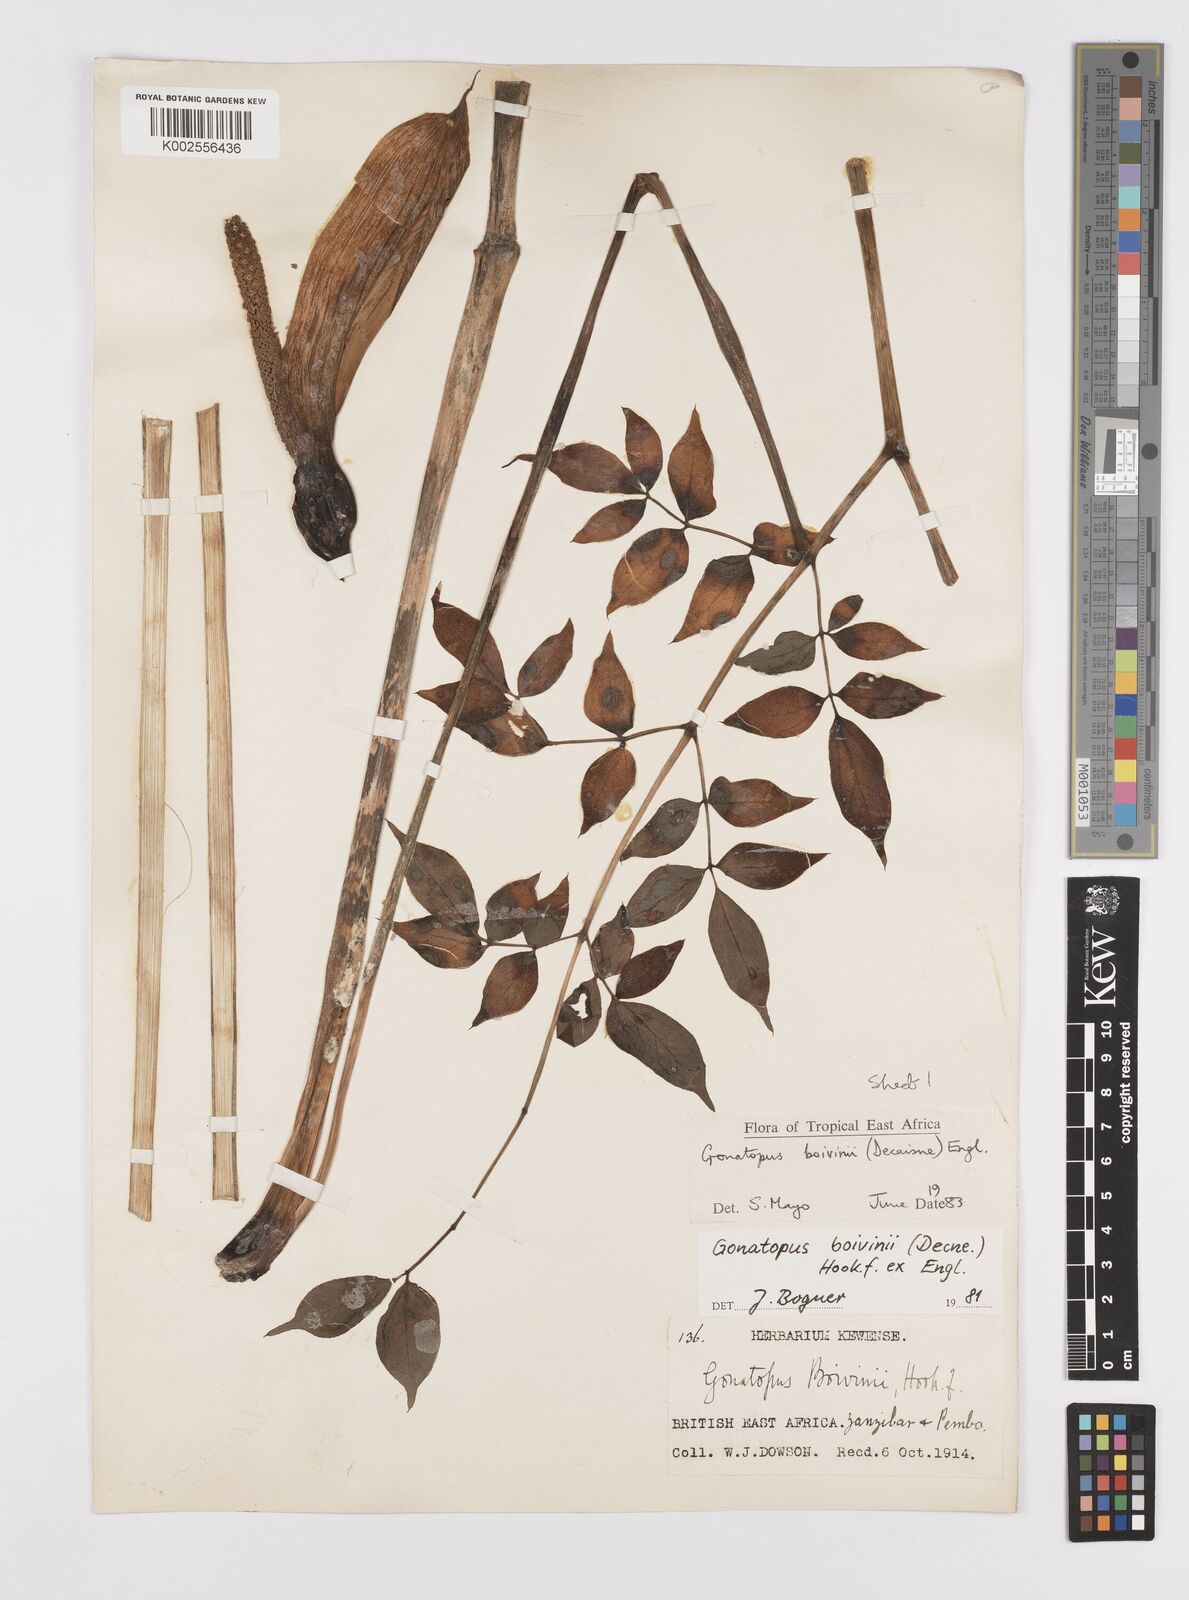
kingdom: Plantae
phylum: Tracheophyta
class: Liliopsida
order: Alismatales
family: Araceae
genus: Gonatopus
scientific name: Gonatopus boivinii
